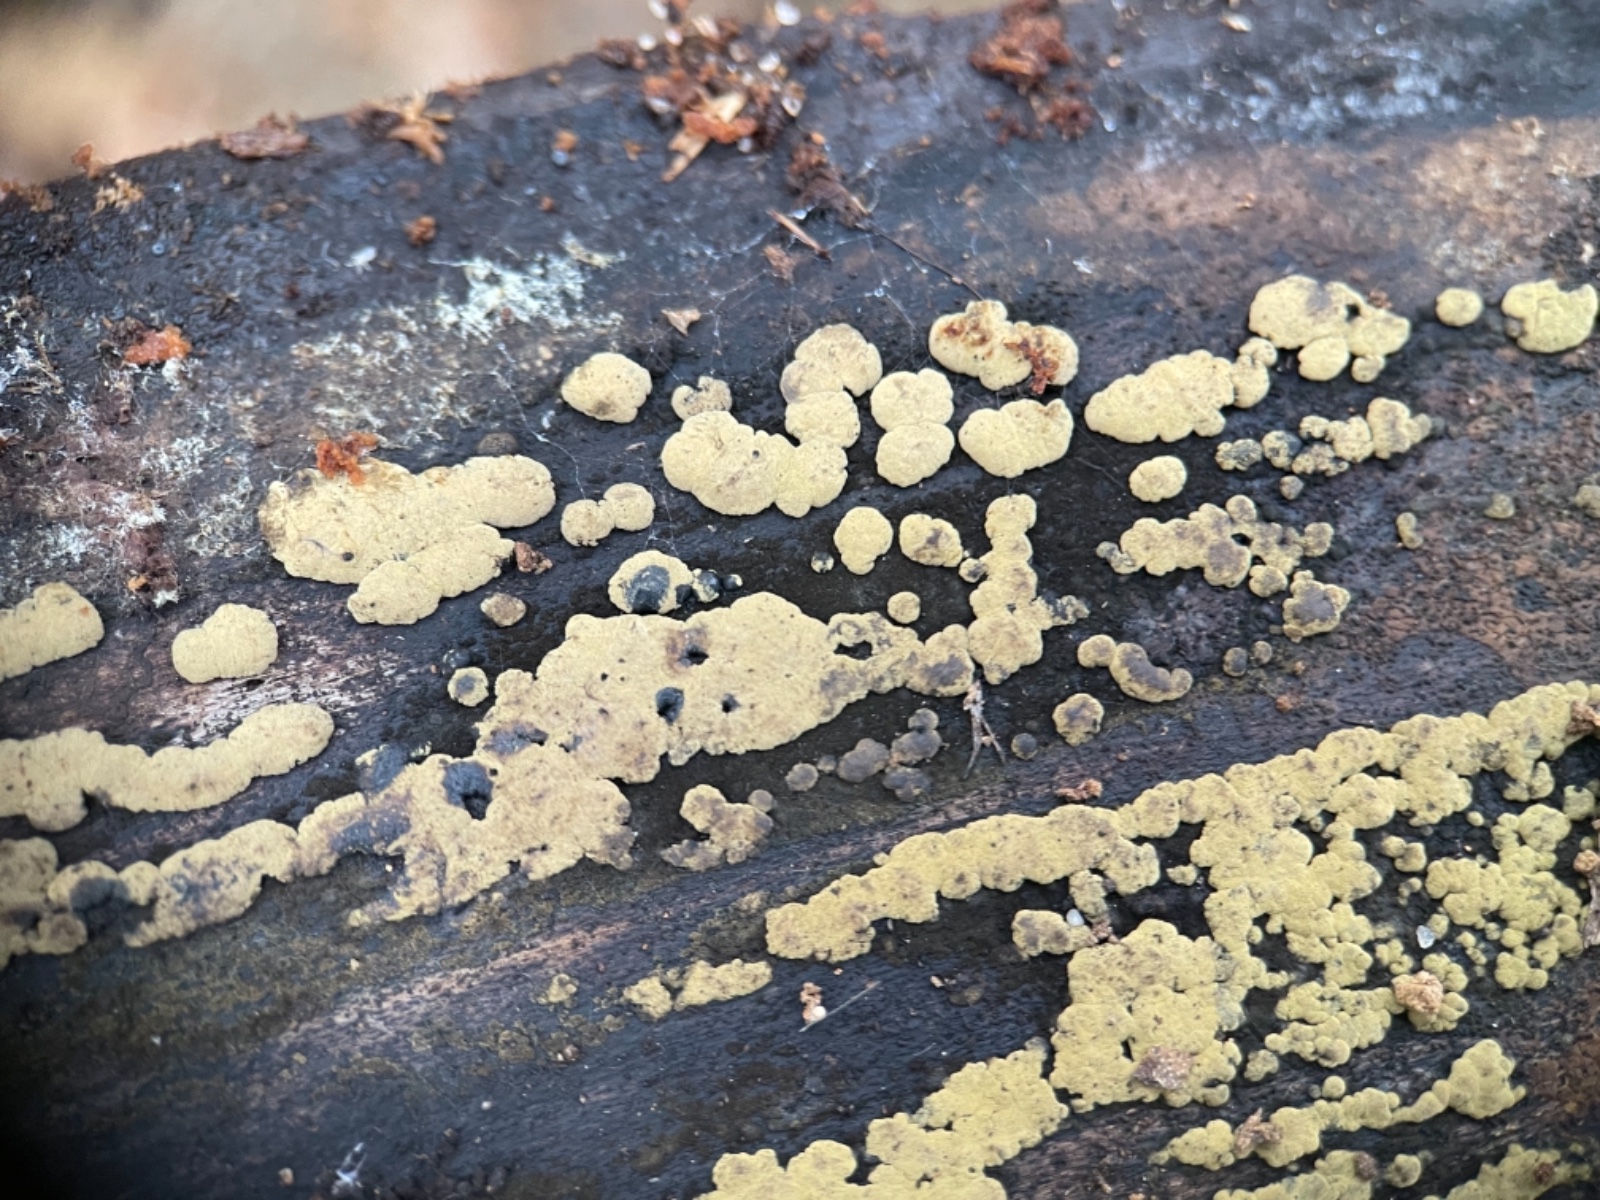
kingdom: Fungi
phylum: Ascomycota
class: Sordariomycetes
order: Xylariales
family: Hypoxylaceae
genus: Jackrogersella
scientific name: Jackrogersella multiformis
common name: foranderlig kulbær
